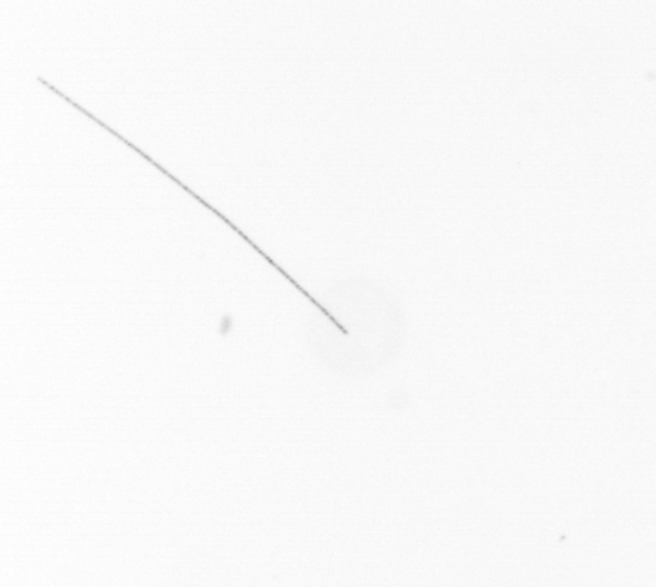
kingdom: Chromista
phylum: Ochrophyta
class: Bacillariophyceae
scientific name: Bacillariophyceae
